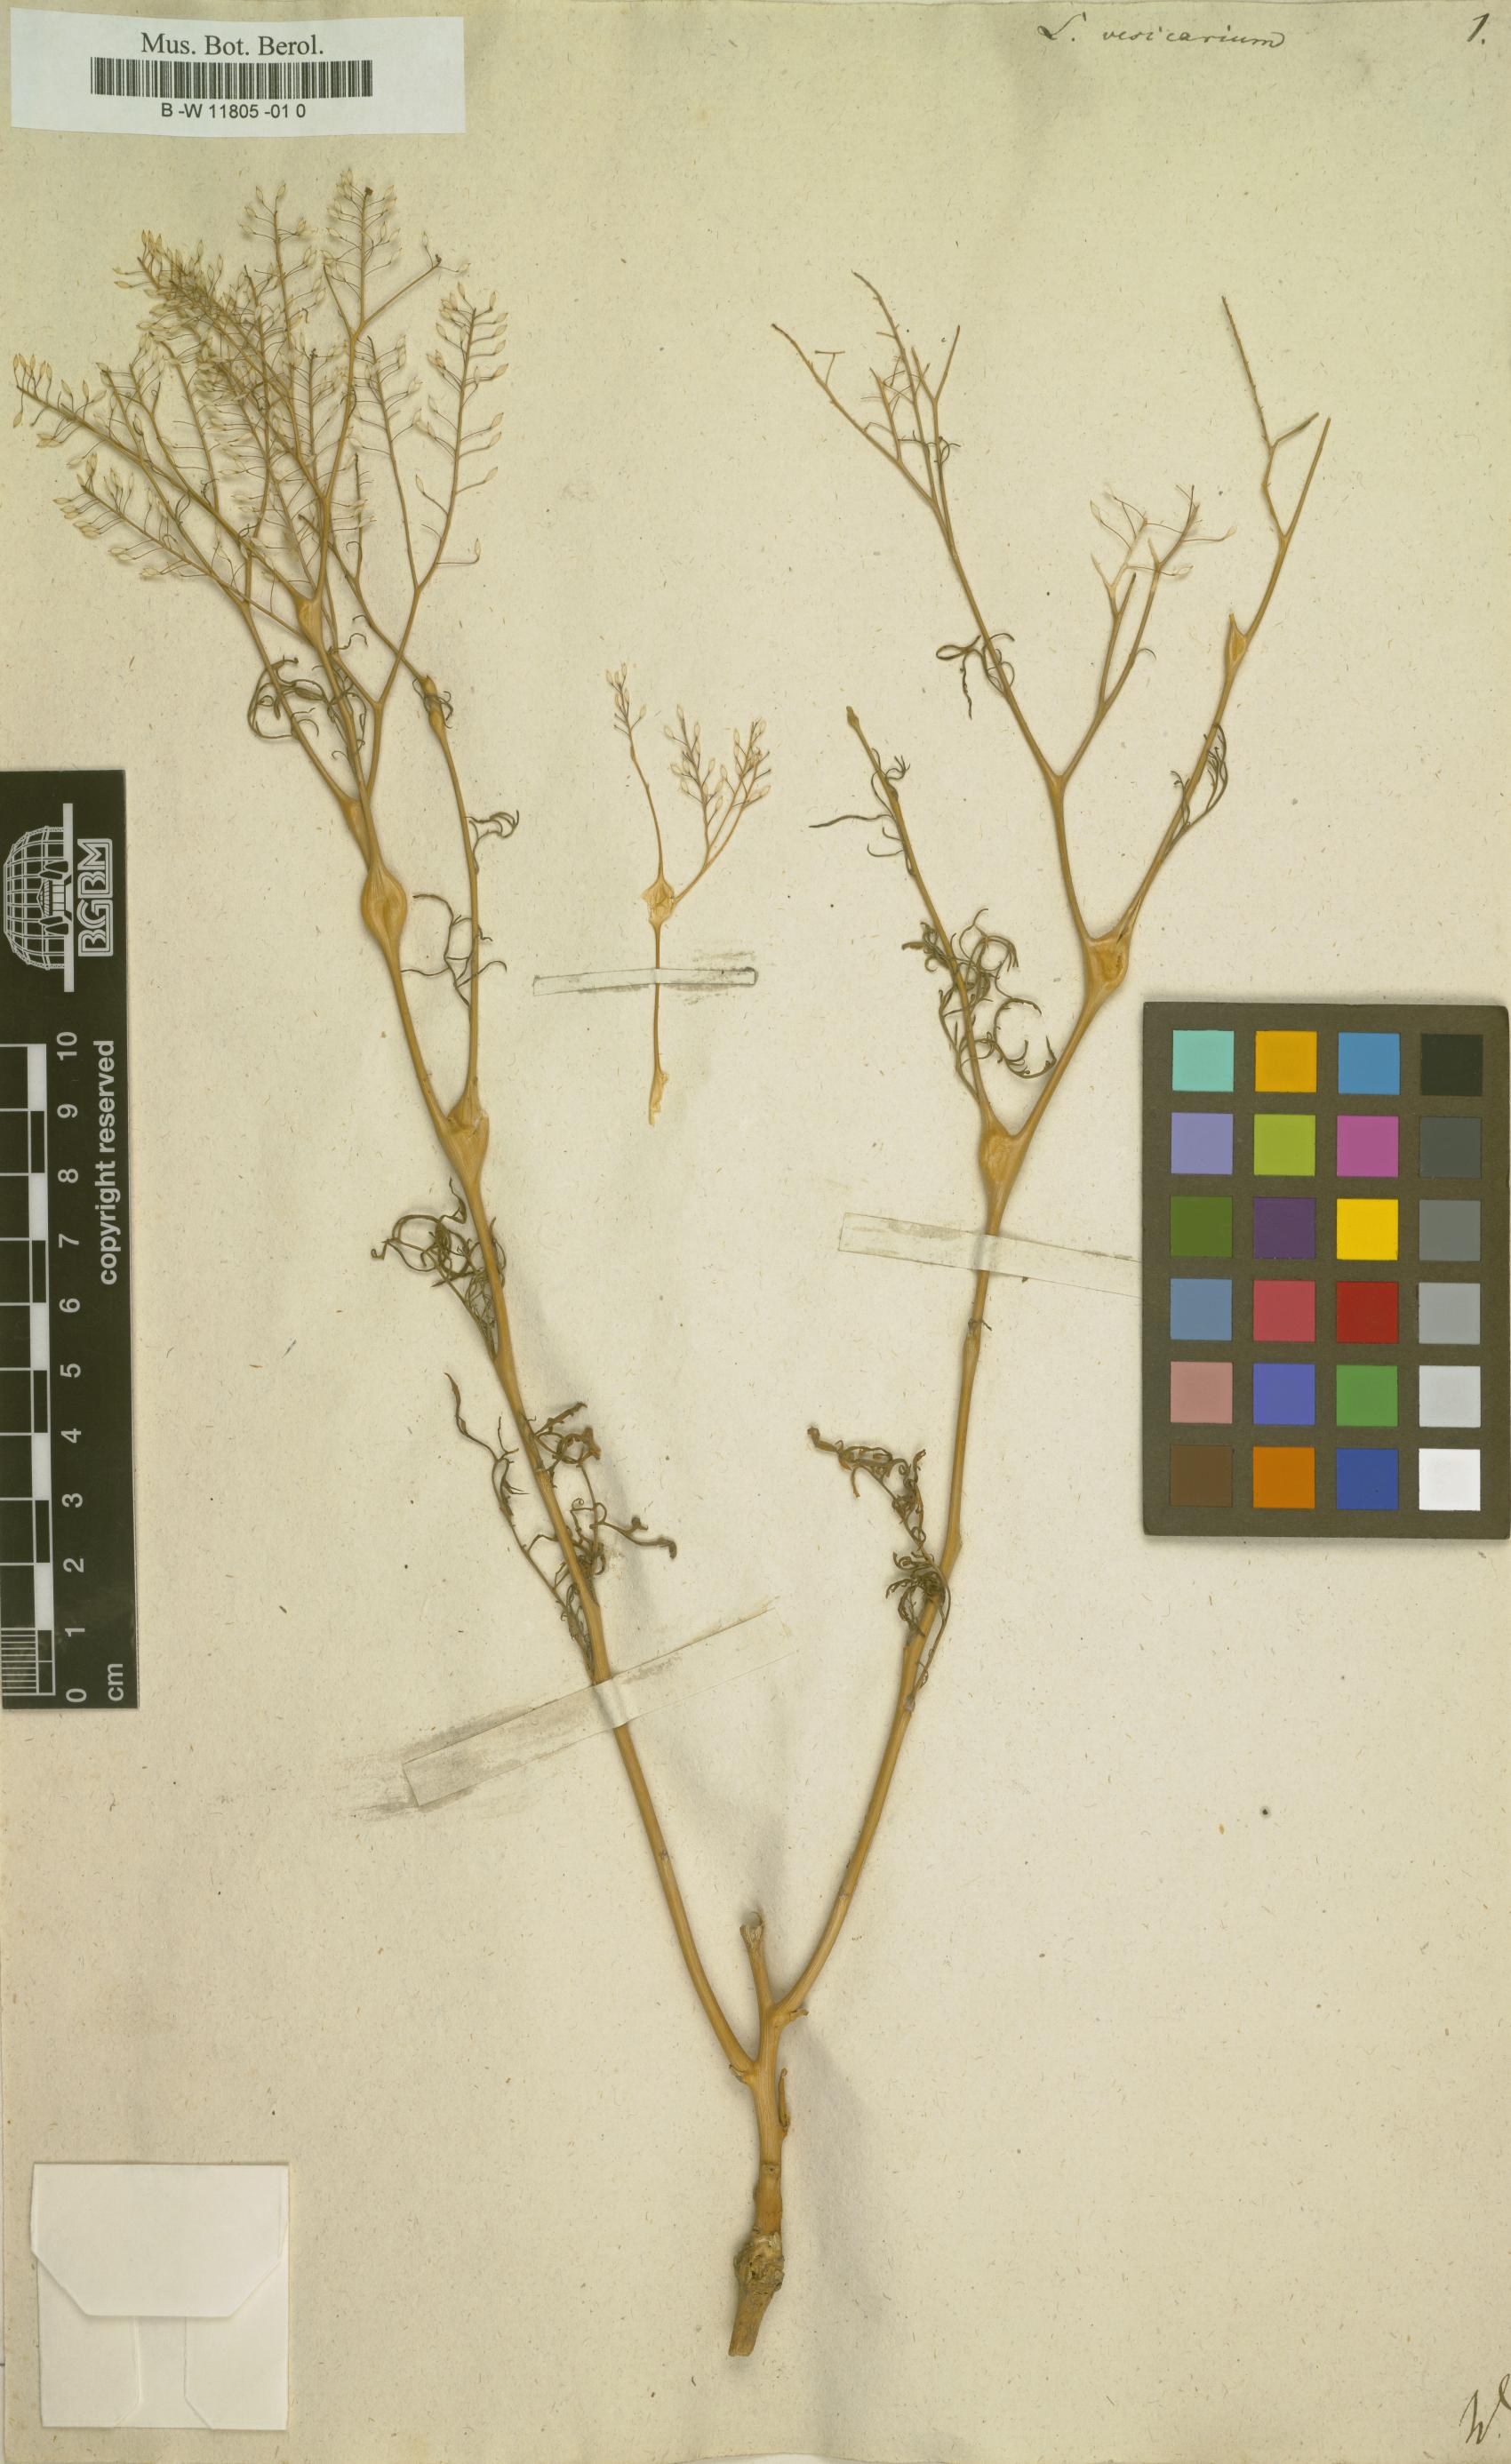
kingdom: Plantae
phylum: Tracheophyta
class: Magnoliopsida
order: Brassicales
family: Brassicaceae
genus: Lepidium
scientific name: Lepidium vesicarium
